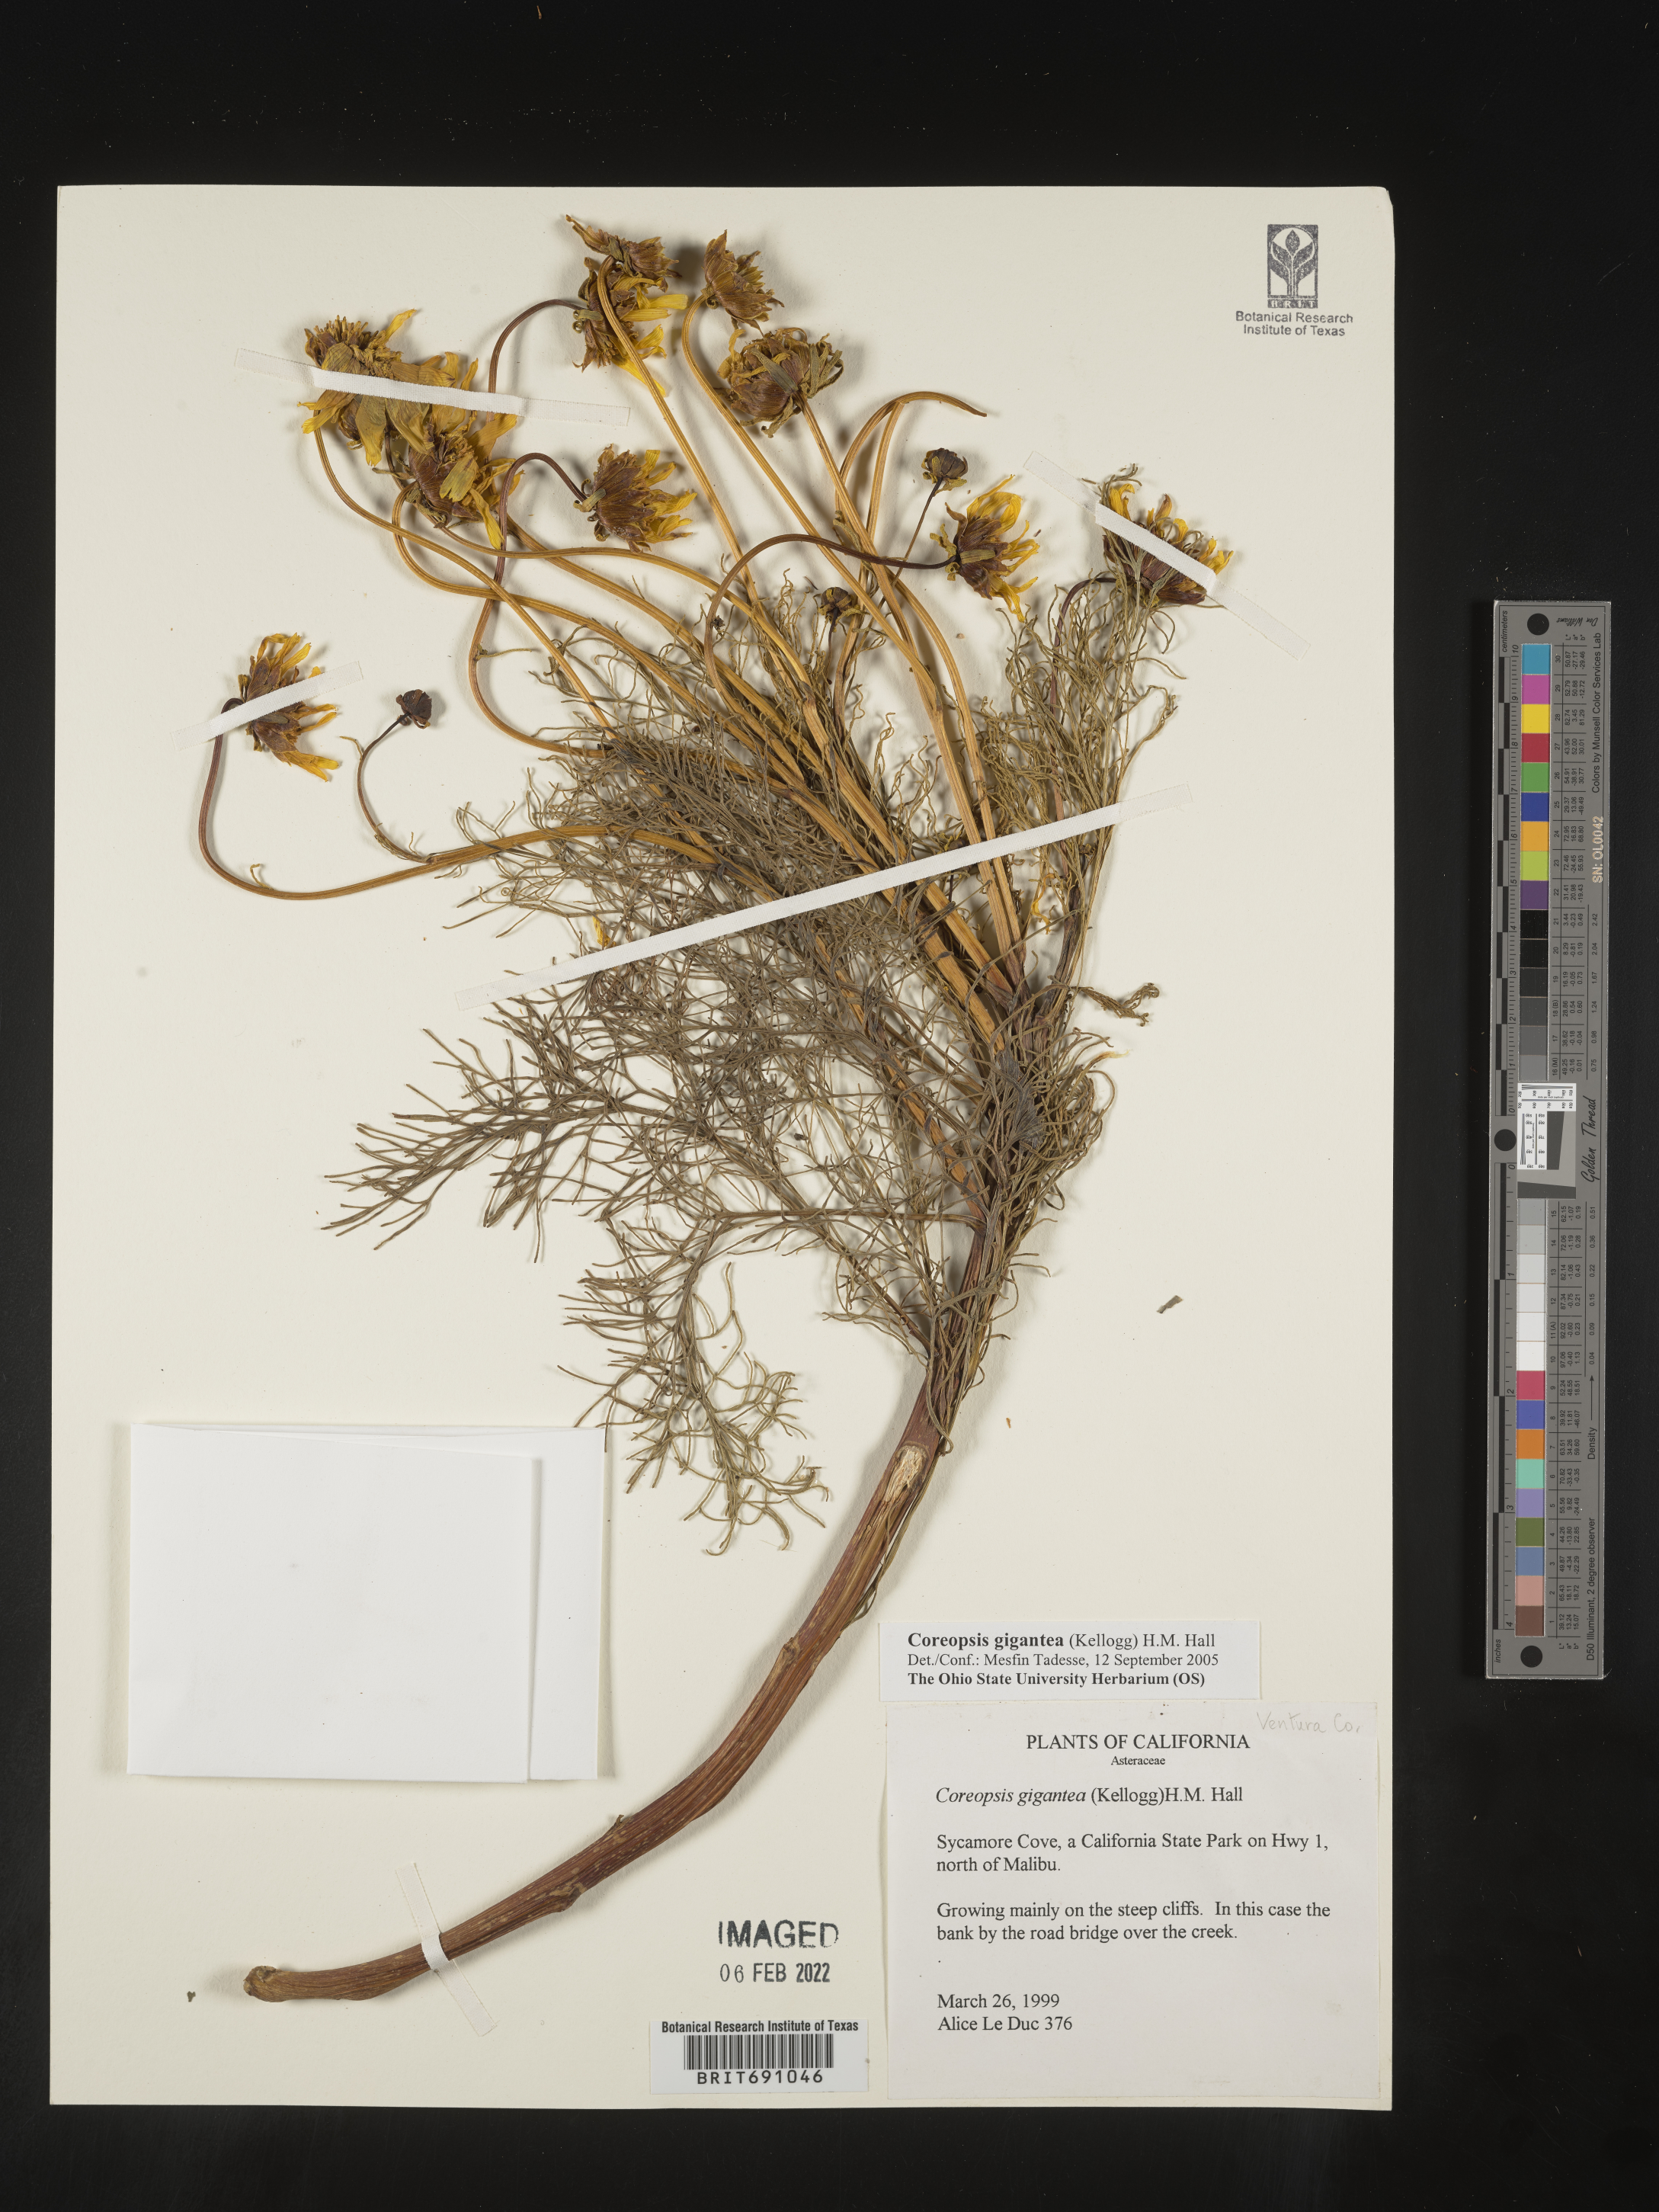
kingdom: Plantae
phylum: Tracheophyta
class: Magnoliopsida
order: Asterales
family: Asteraceae
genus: Coreopsis
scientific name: Coreopsis gigantea
